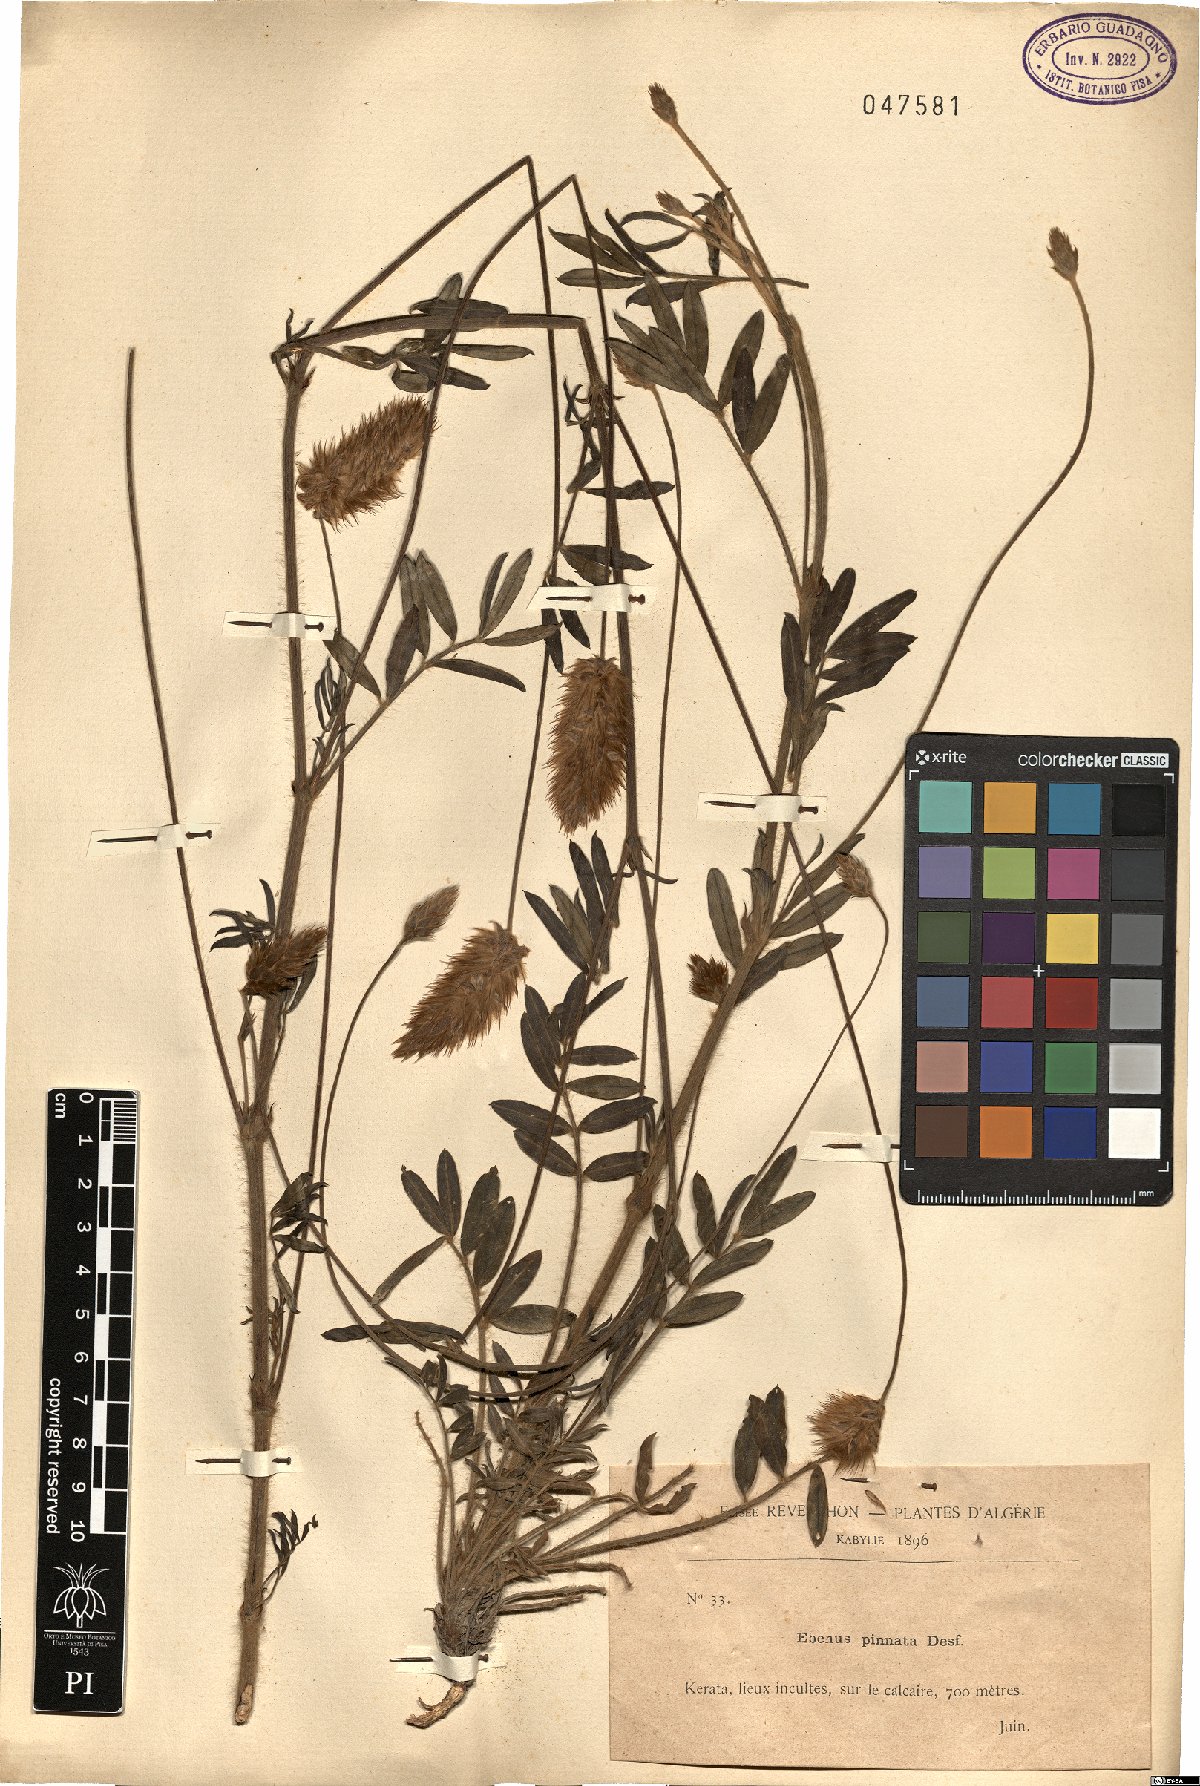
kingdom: Plantae
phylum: Tracheophyta
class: Magnoliopsida
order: Fabales
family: Fabaceae
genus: Ebenus
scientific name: Ebenus pinnata
